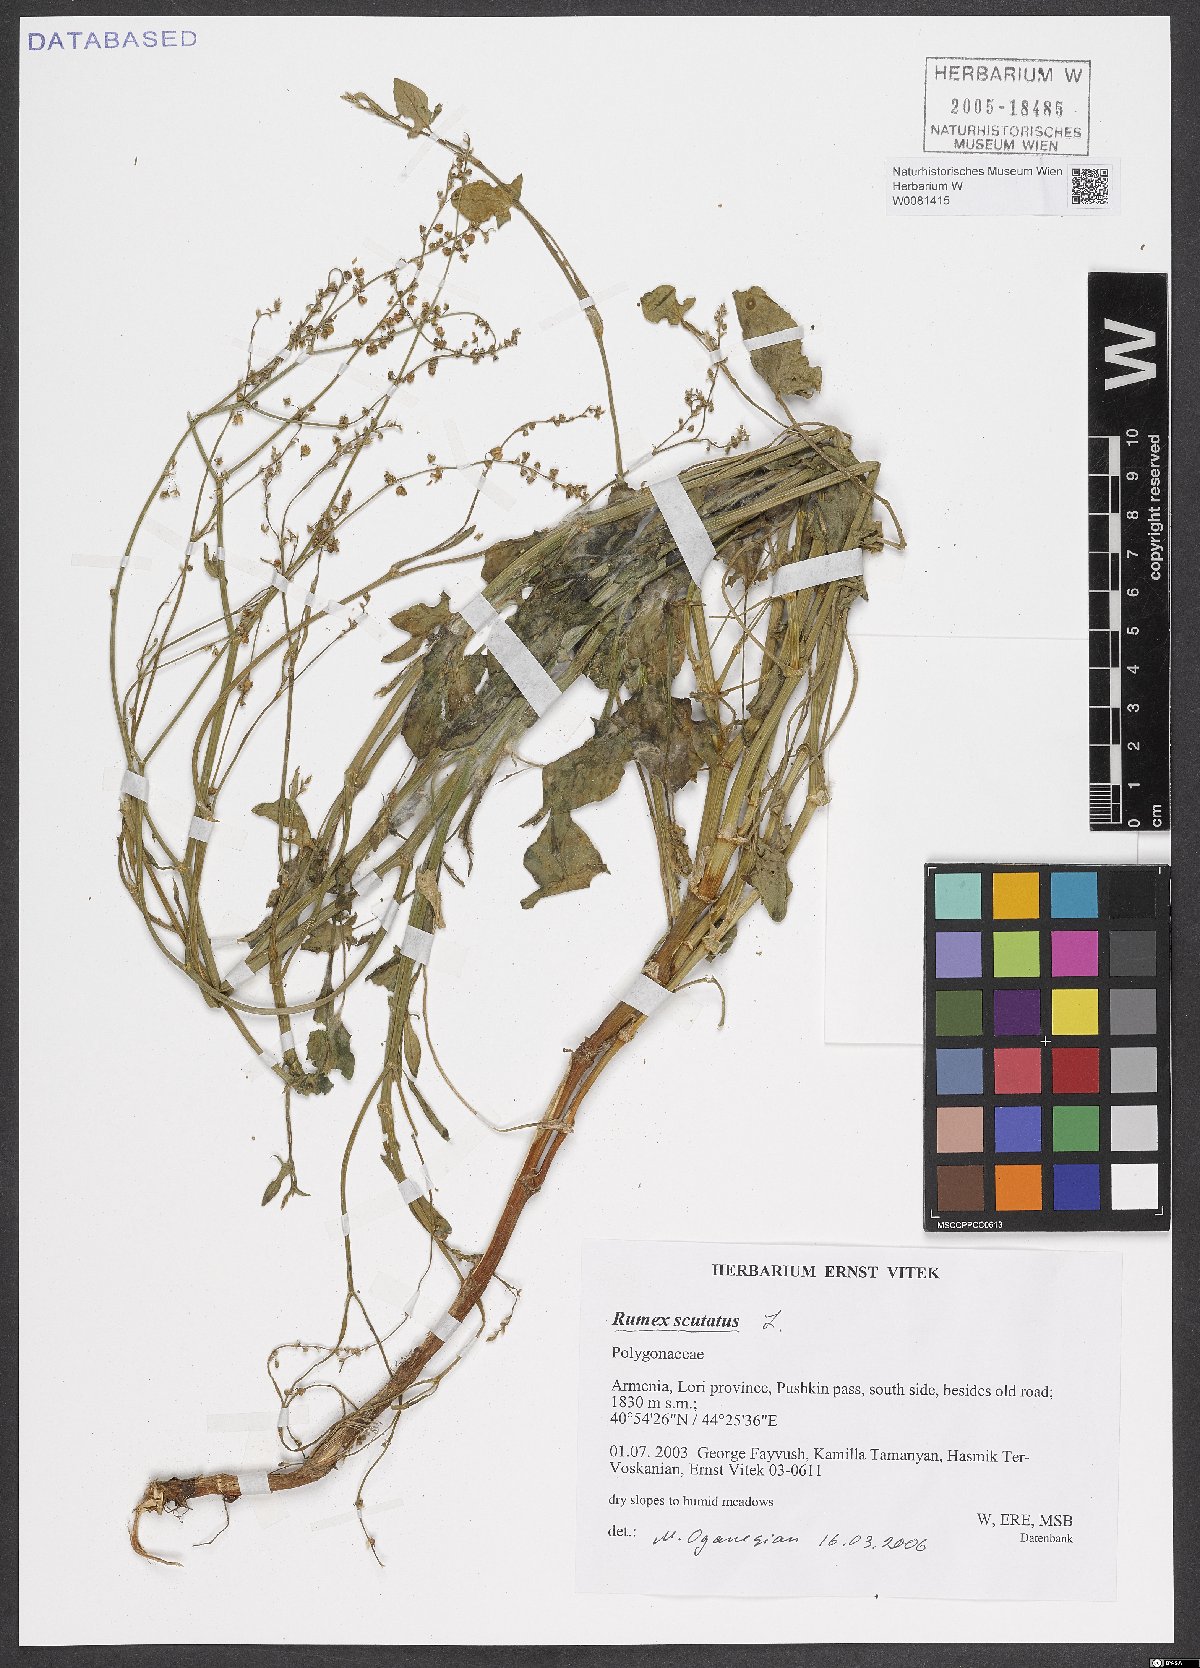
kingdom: Plantae
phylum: Tracheophyta
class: Magnoliopsida
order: Caryophyllales
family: Polygonaceae
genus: Rumex
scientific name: Rumex scutatus
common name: French sorrel
